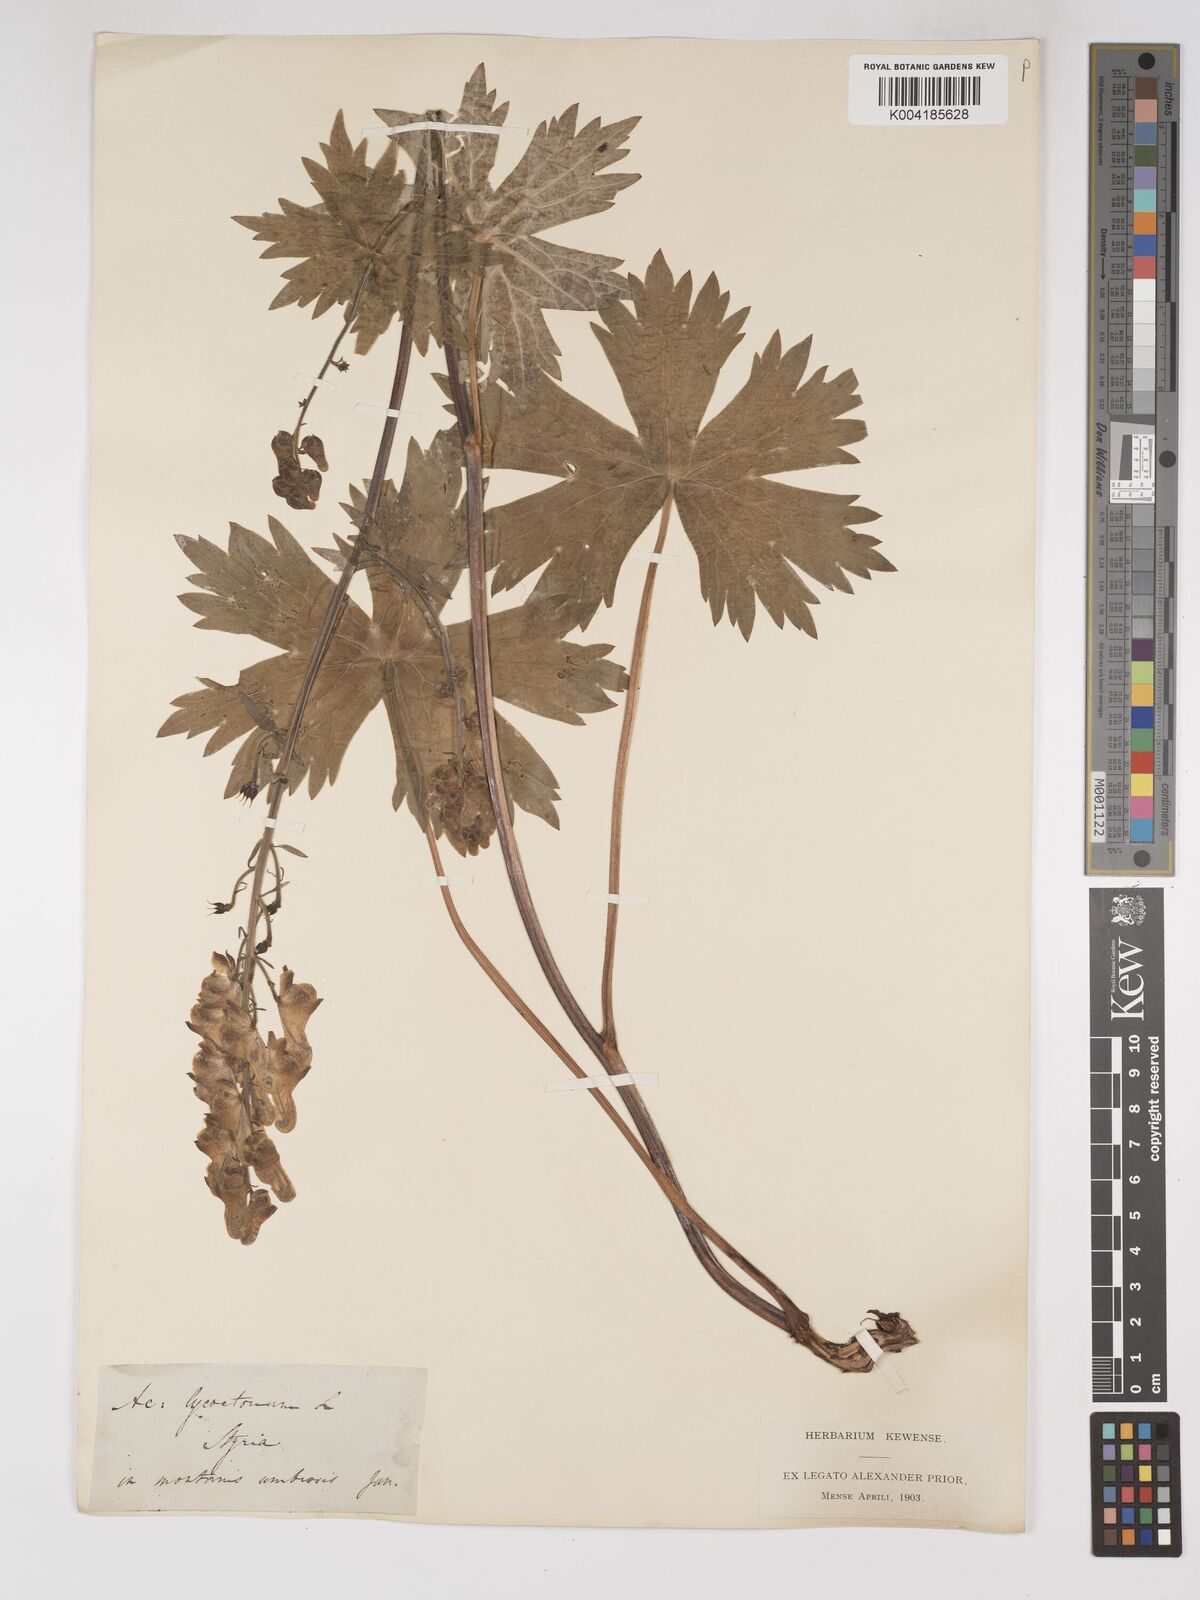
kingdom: Plantae
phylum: Tracheophyta
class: Magnoliopsida
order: Ranunculales
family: Ranunculaceae
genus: Aconitum
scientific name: Aconitum lycoctonum
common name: Wolf's-bane
